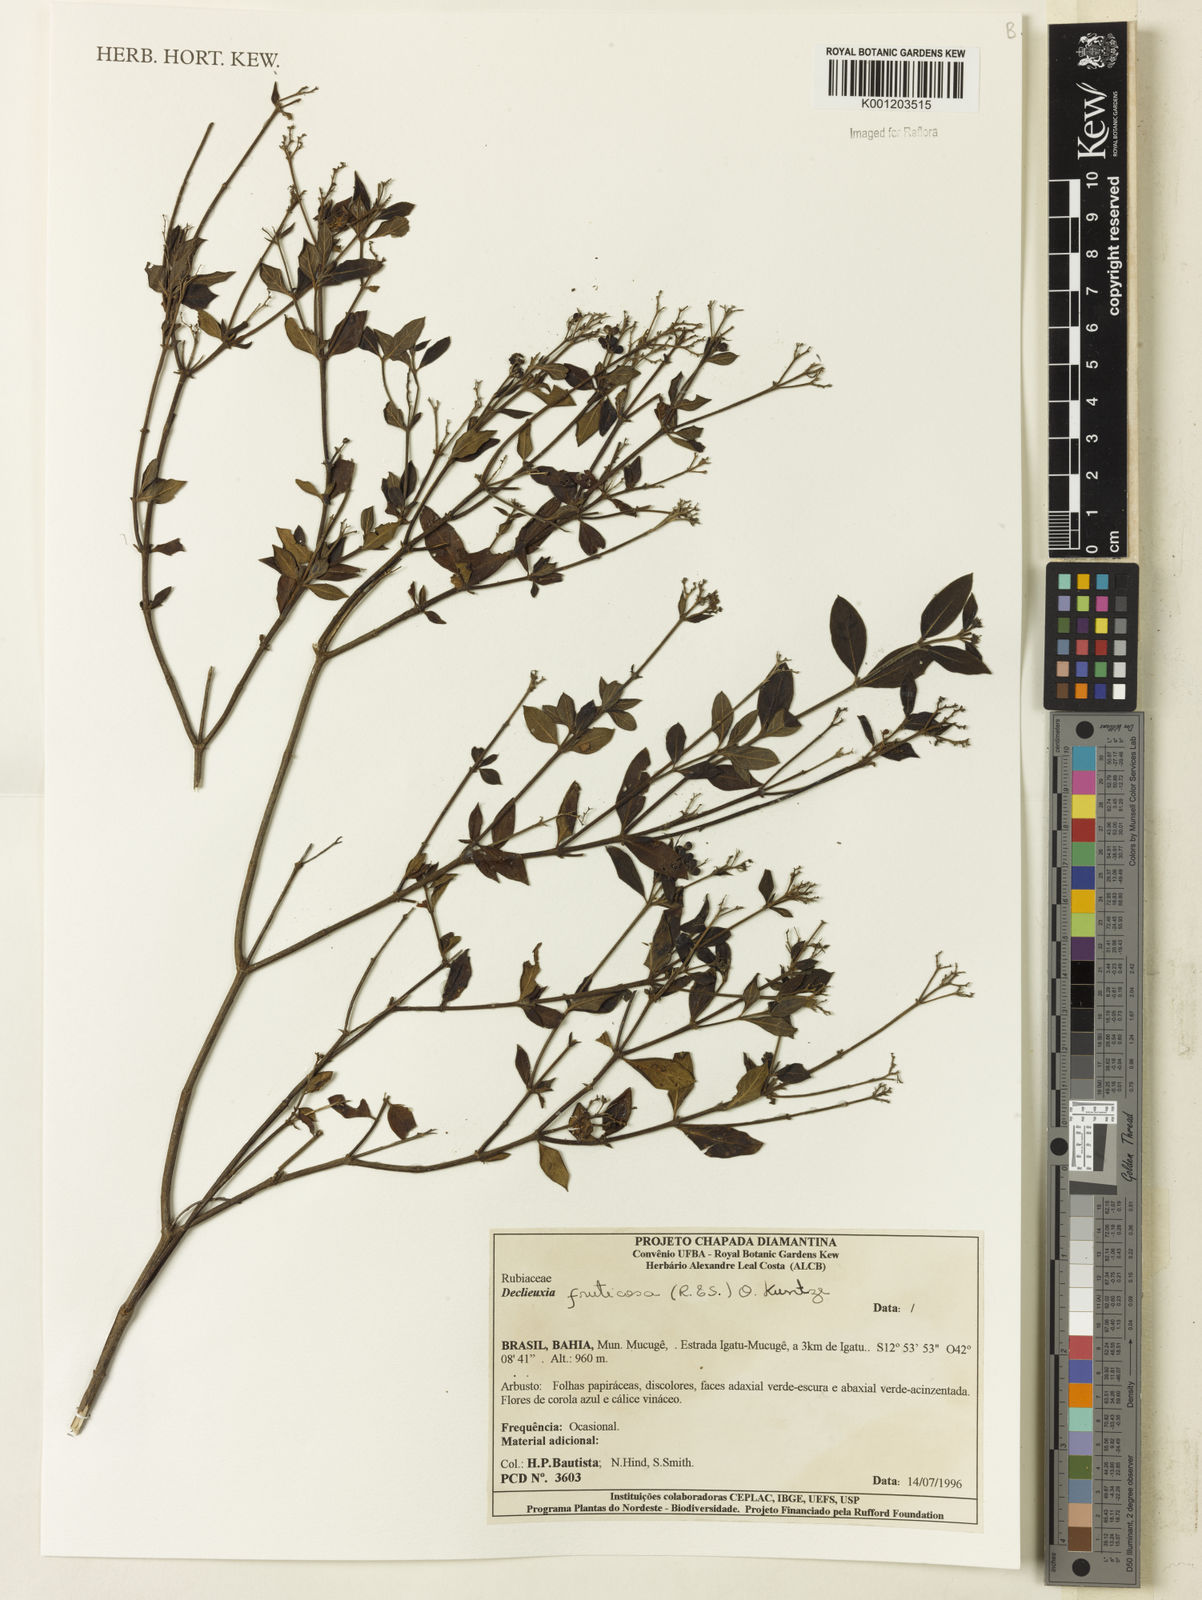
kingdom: Plantae
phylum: Tracheophyta
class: Magnoliopsida
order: Gentianales
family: Rubiaceae
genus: Declieuxia
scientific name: Declieuxia fruticosa
